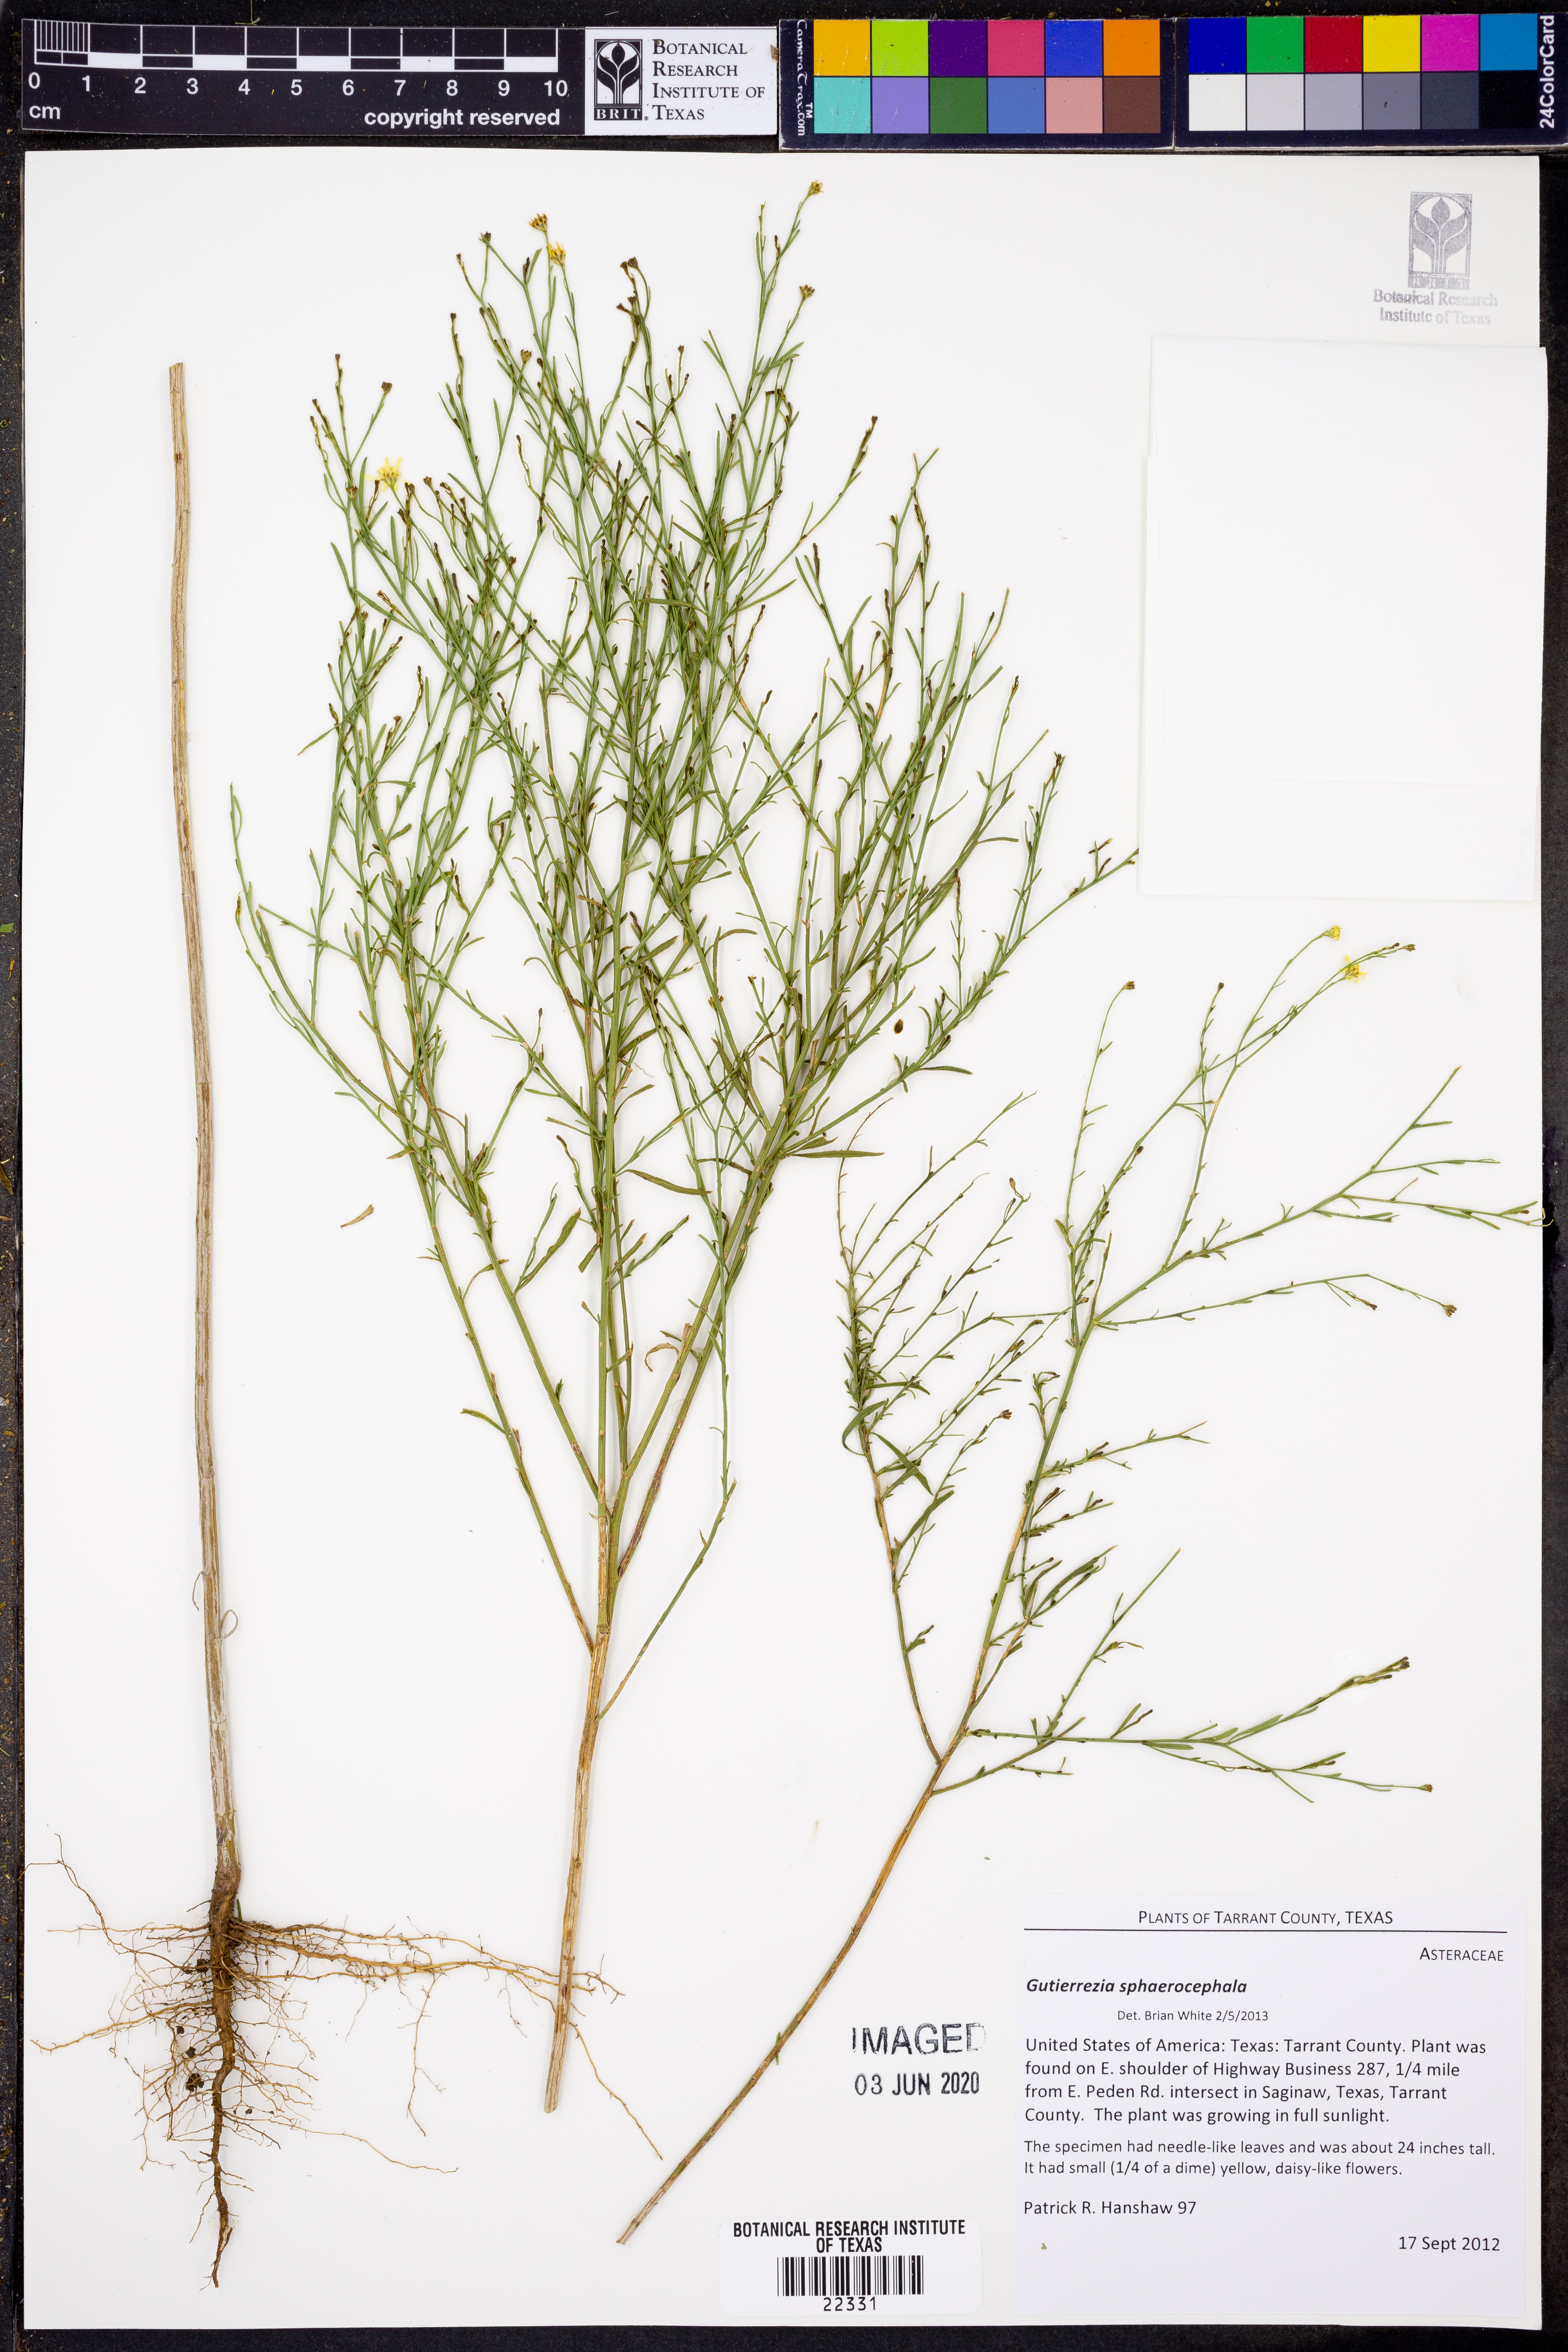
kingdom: Plantae
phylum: Tracheophyta
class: Magnoliopsida
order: Asterales
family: Asteraceae
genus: Gutierrezia
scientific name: Gutierrezia sphaerocephala
